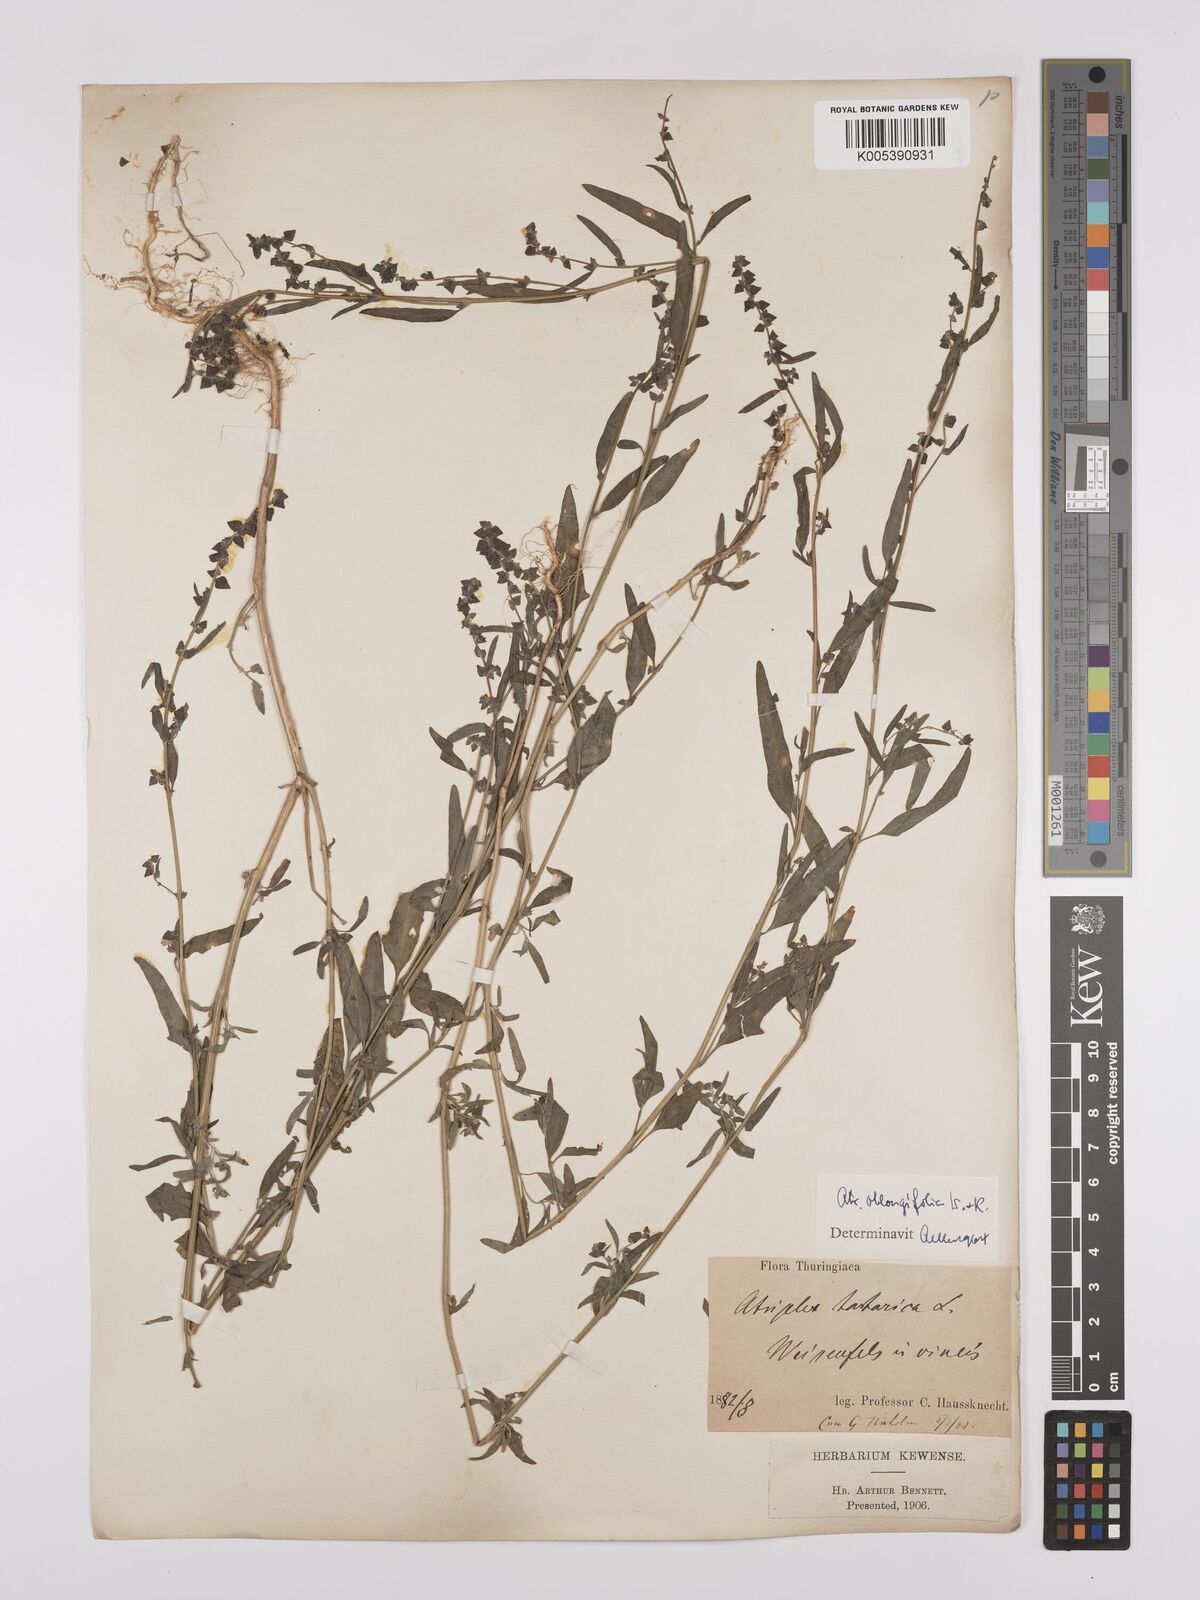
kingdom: Plantae
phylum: Tracheophyta
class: Magnoliopsida
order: Caryophyllales
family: Amaranthaceae
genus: Atriplex
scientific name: Atriplex
